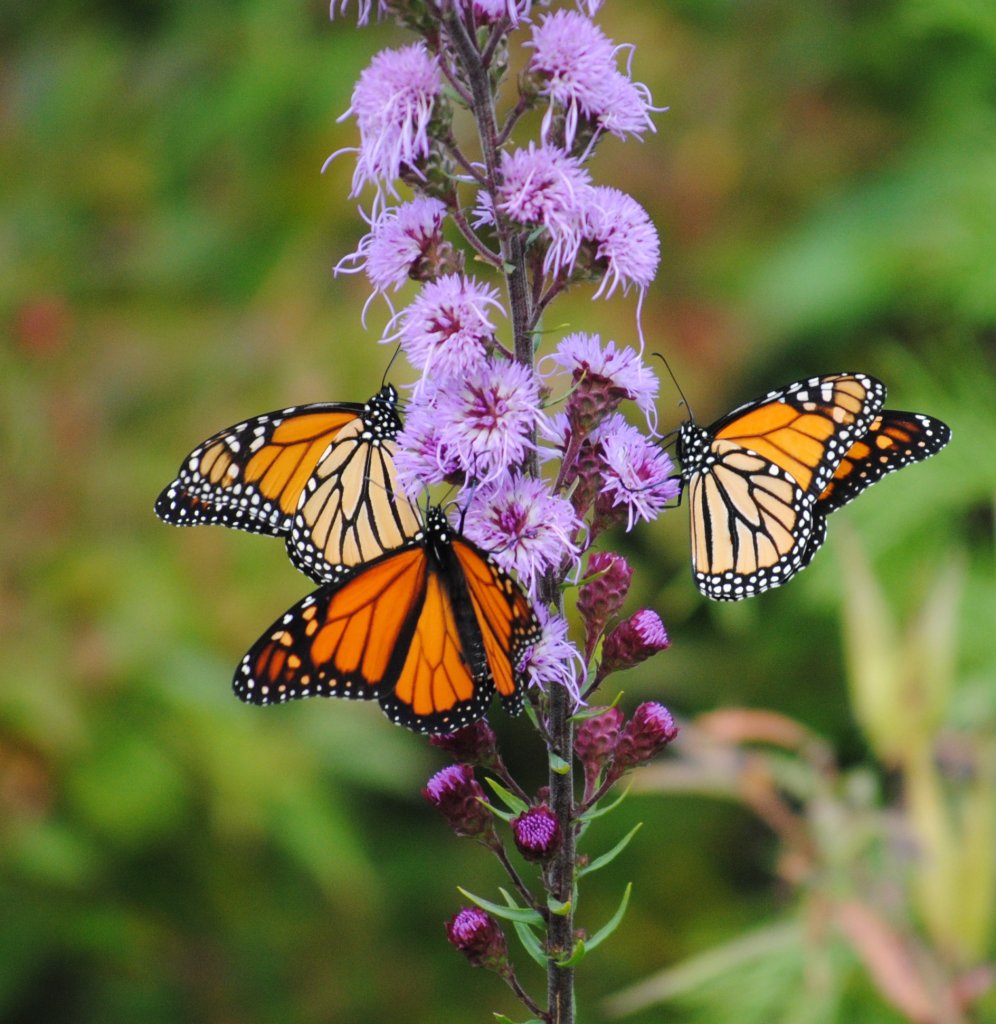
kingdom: Animalia
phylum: Arthropoda
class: Insecta
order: Lepidoptera
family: Nymphalidae
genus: Danaus
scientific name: Danaus plexippus
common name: Monarch
